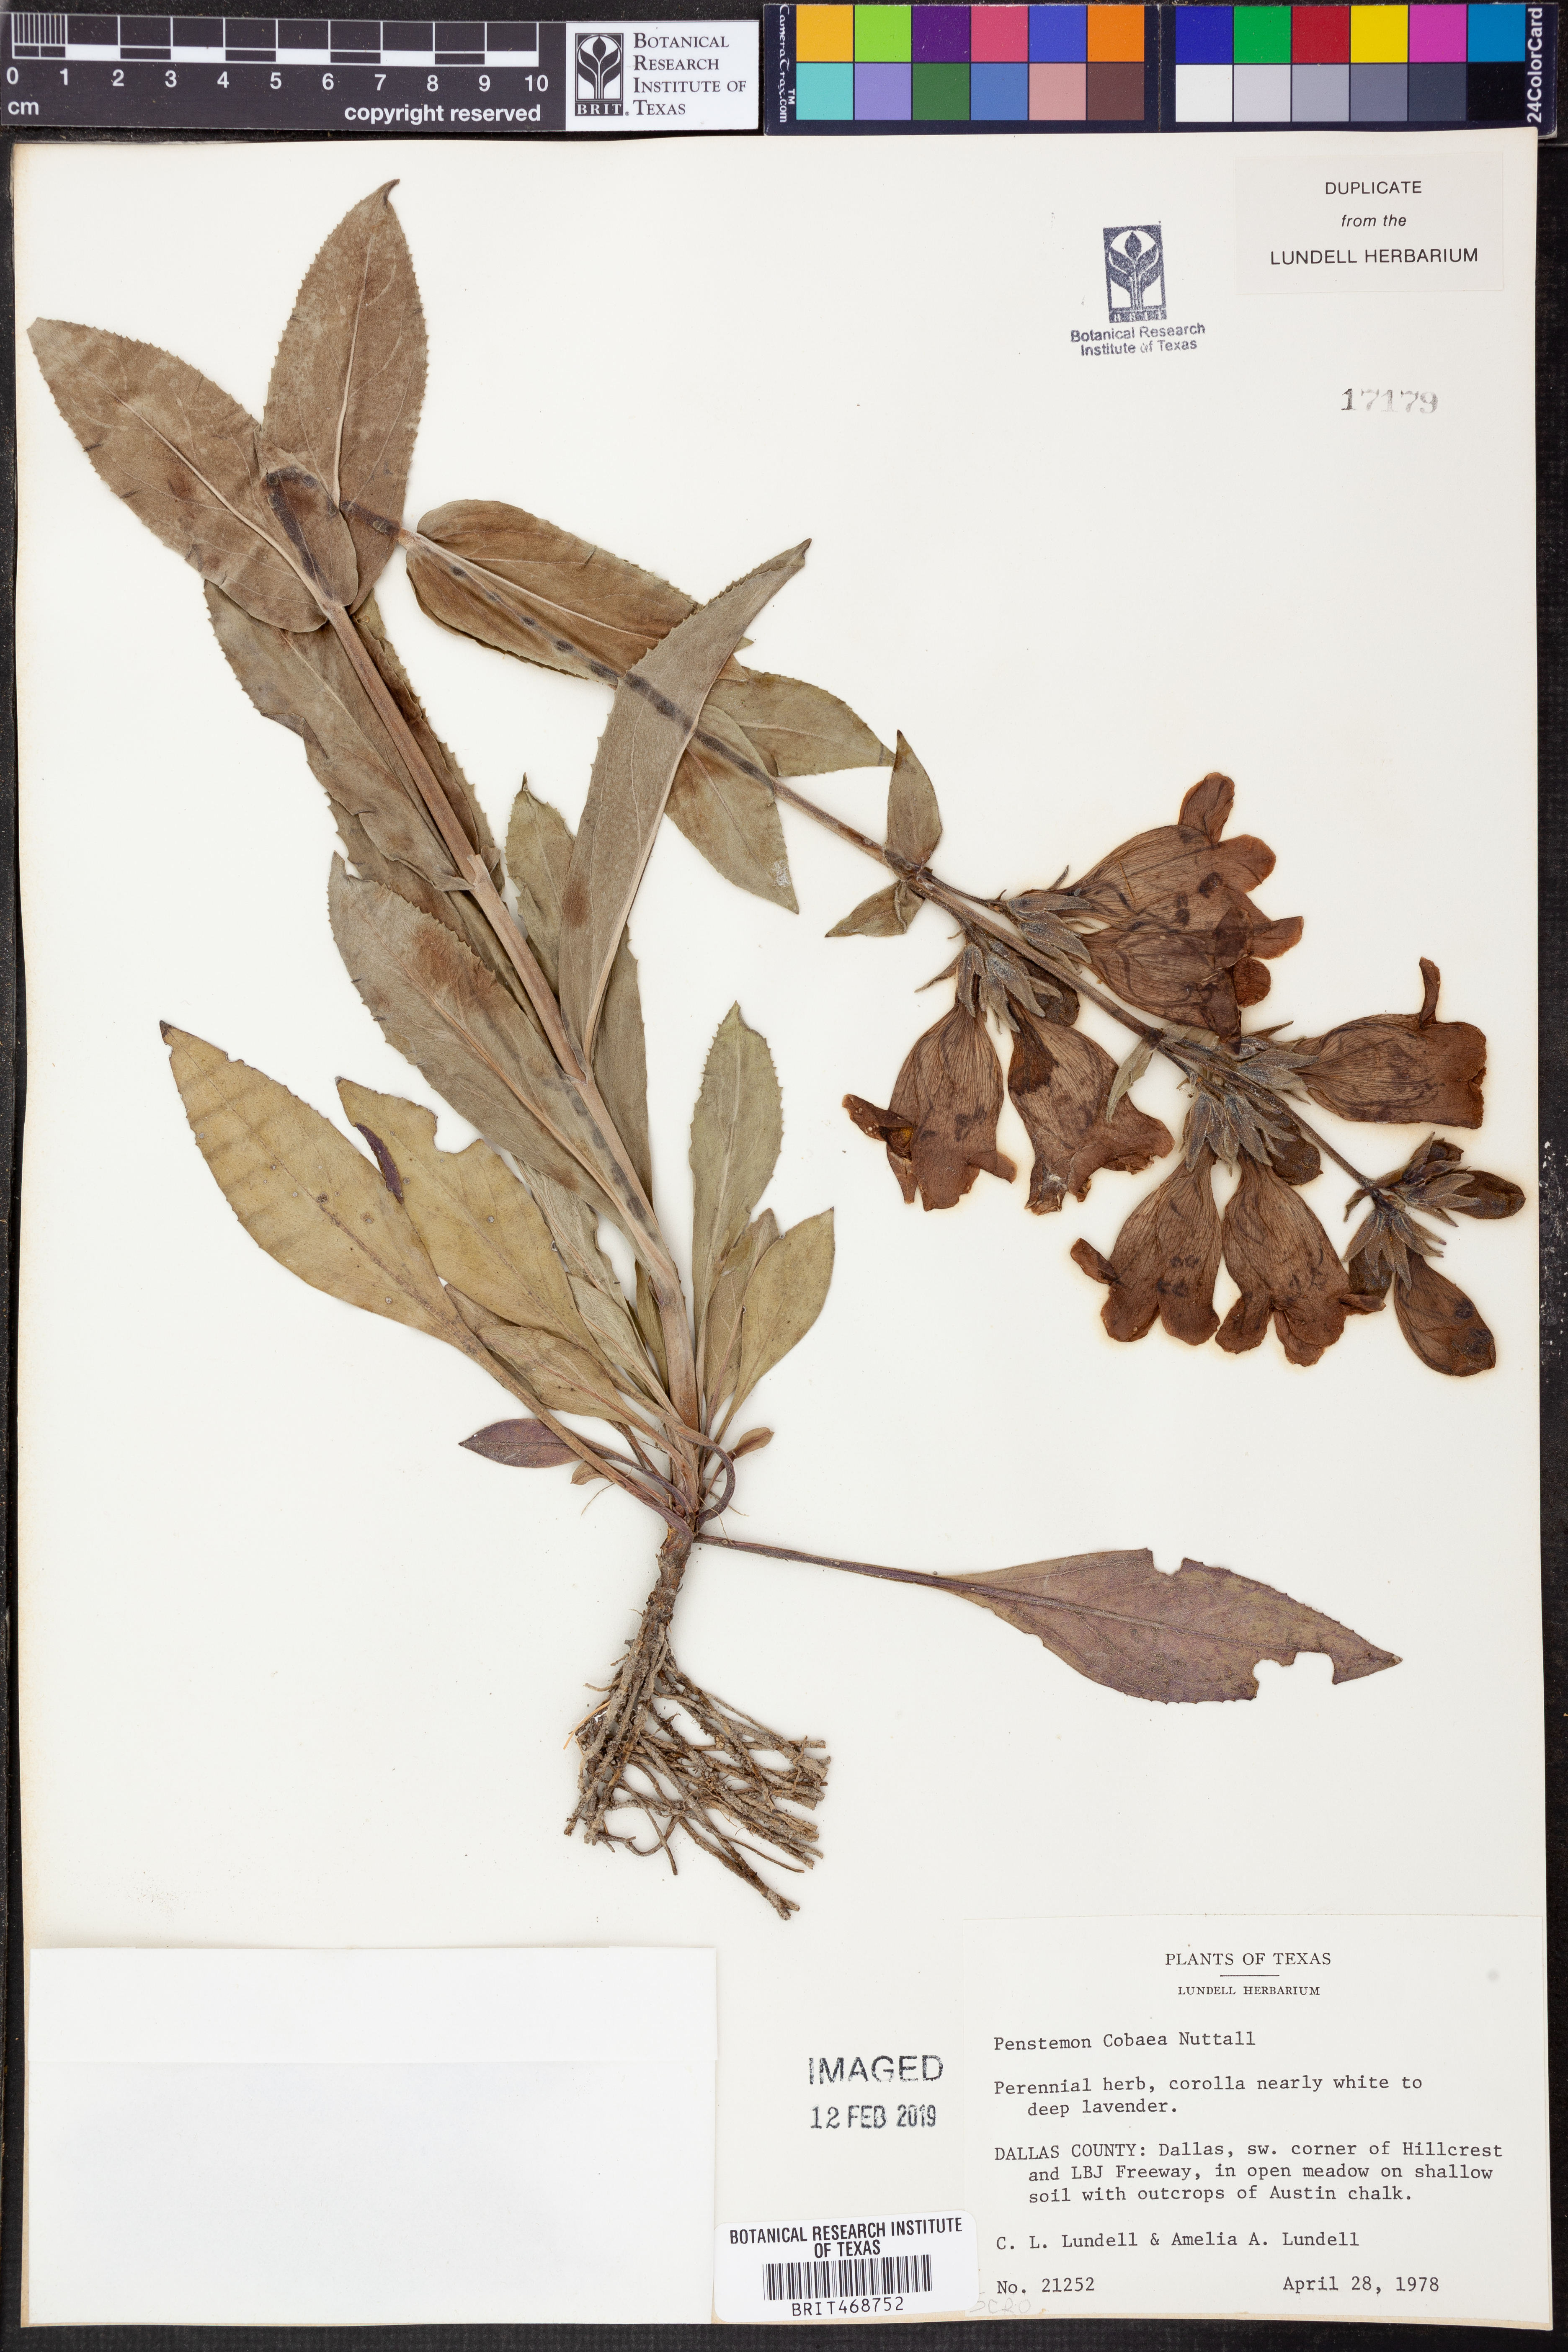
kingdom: Plantae
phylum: Tracheophyta
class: Magnoliopsida
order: Lamiales
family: Plantaginaceae
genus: Penstemon
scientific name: Penstemon cobaea
